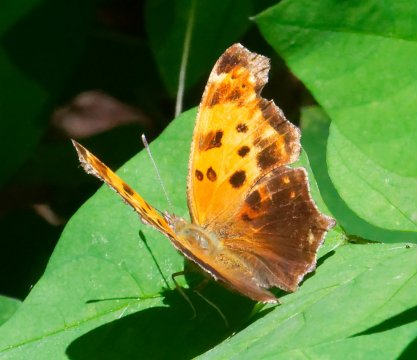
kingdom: Animalia
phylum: Arthropoda
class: Insecta
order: Lepidoptera
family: Nymphalidae
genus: Polygonia
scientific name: Polygonia comma
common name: Eastern Comma
